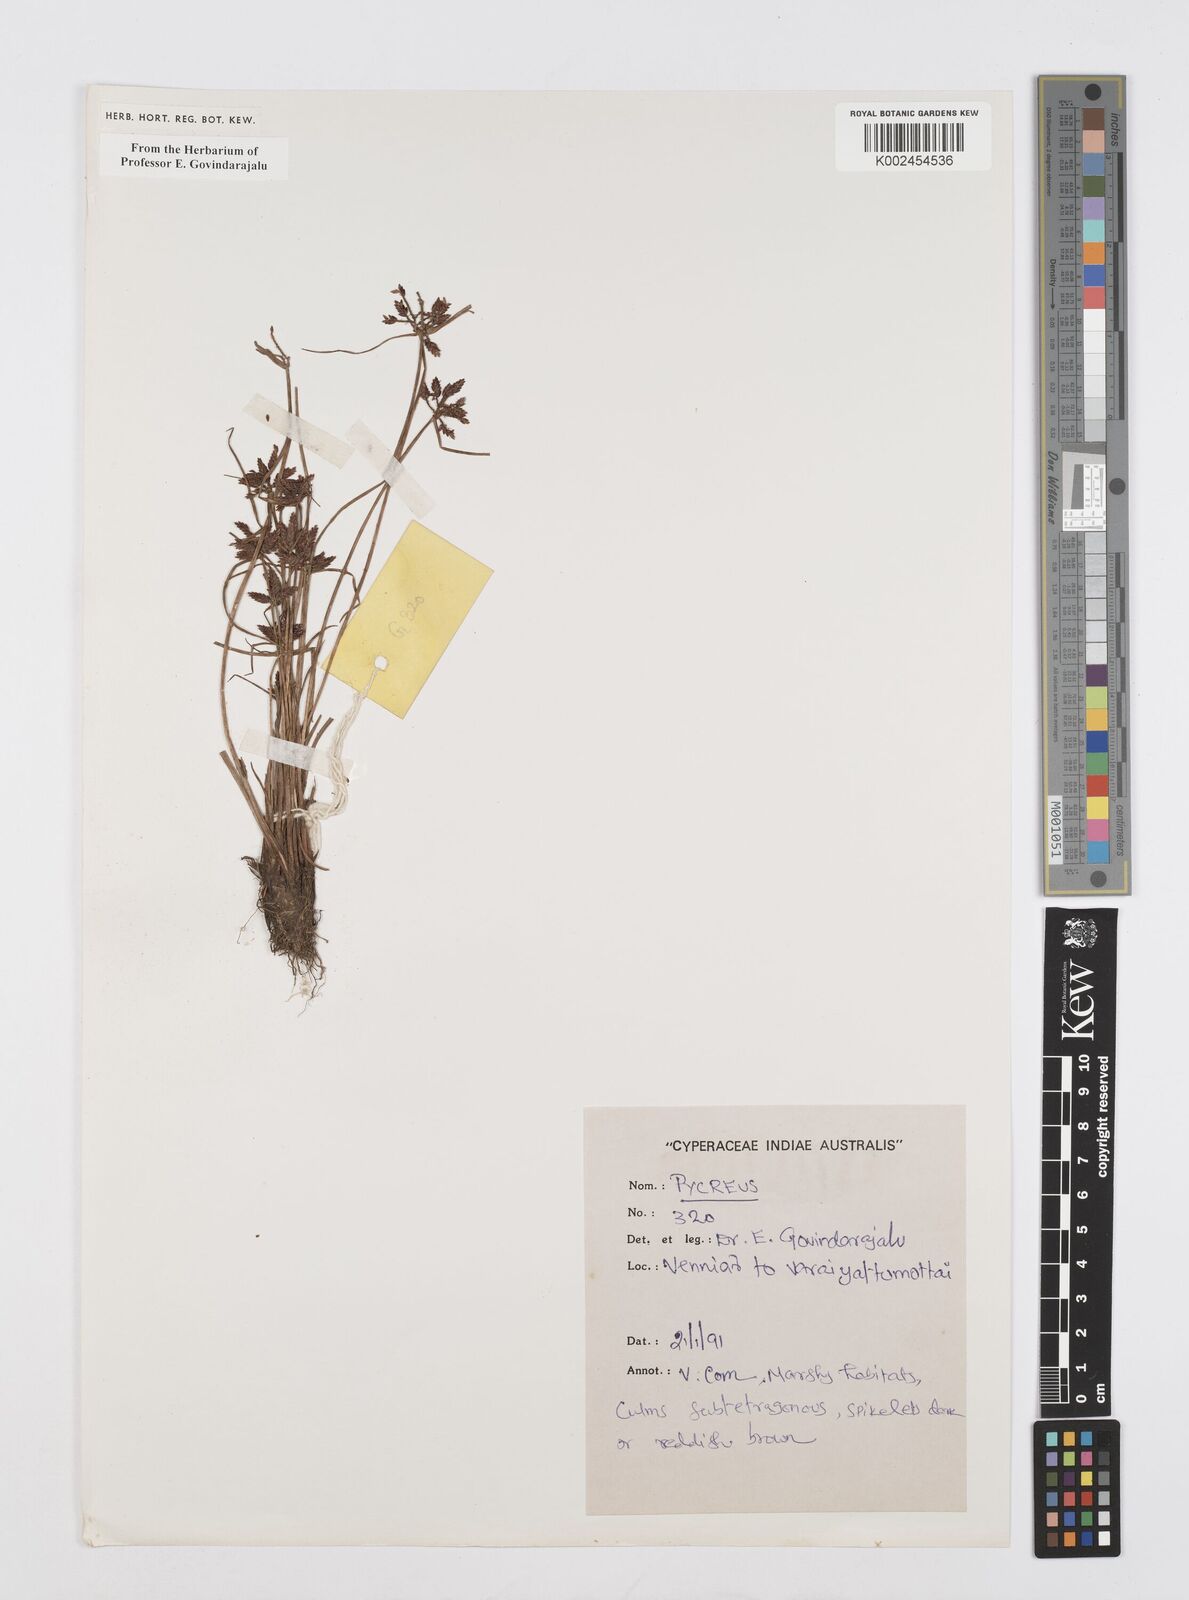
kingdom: Plantae
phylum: Tracheophyta
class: Liliopsida
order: Poales
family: Cyperaceae
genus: Cyperus
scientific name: Cyperus
